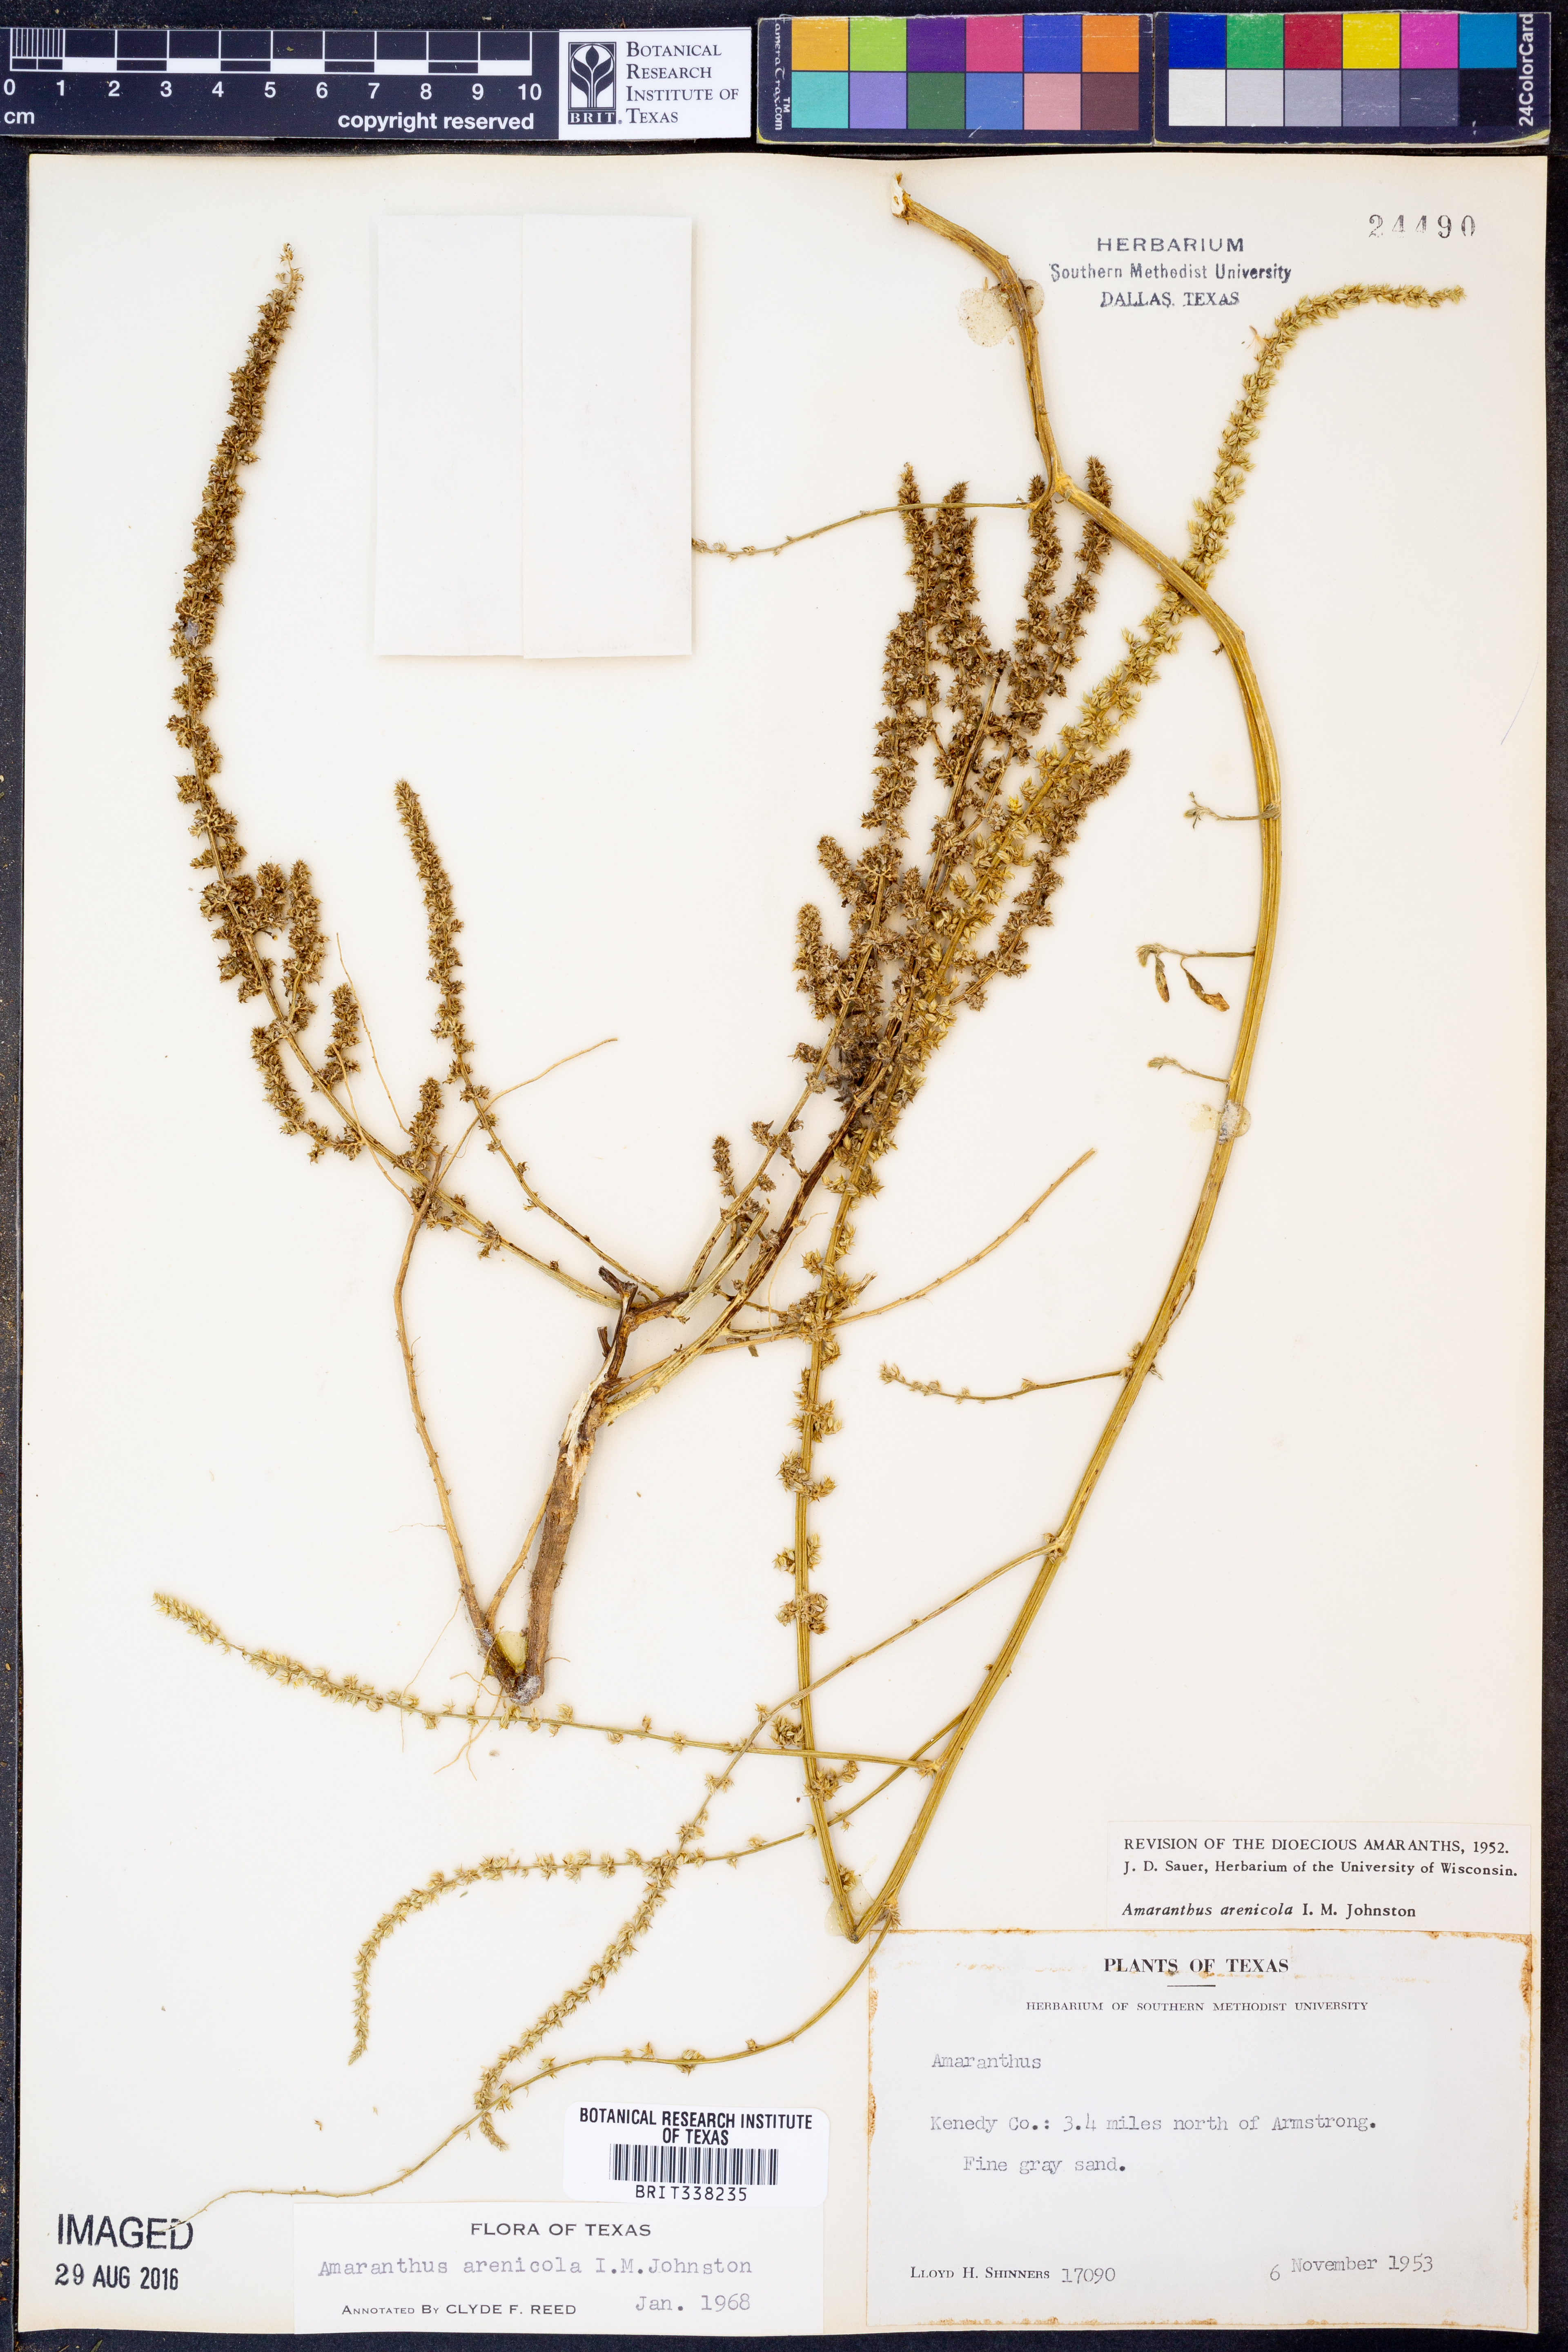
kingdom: Plantae
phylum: Tracheophyta
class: Magnoliopsida
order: Caryophyllales
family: Amaranthaceae
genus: Amaranthus
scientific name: Amaranthus arenicola
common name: Sandhills amaranth
